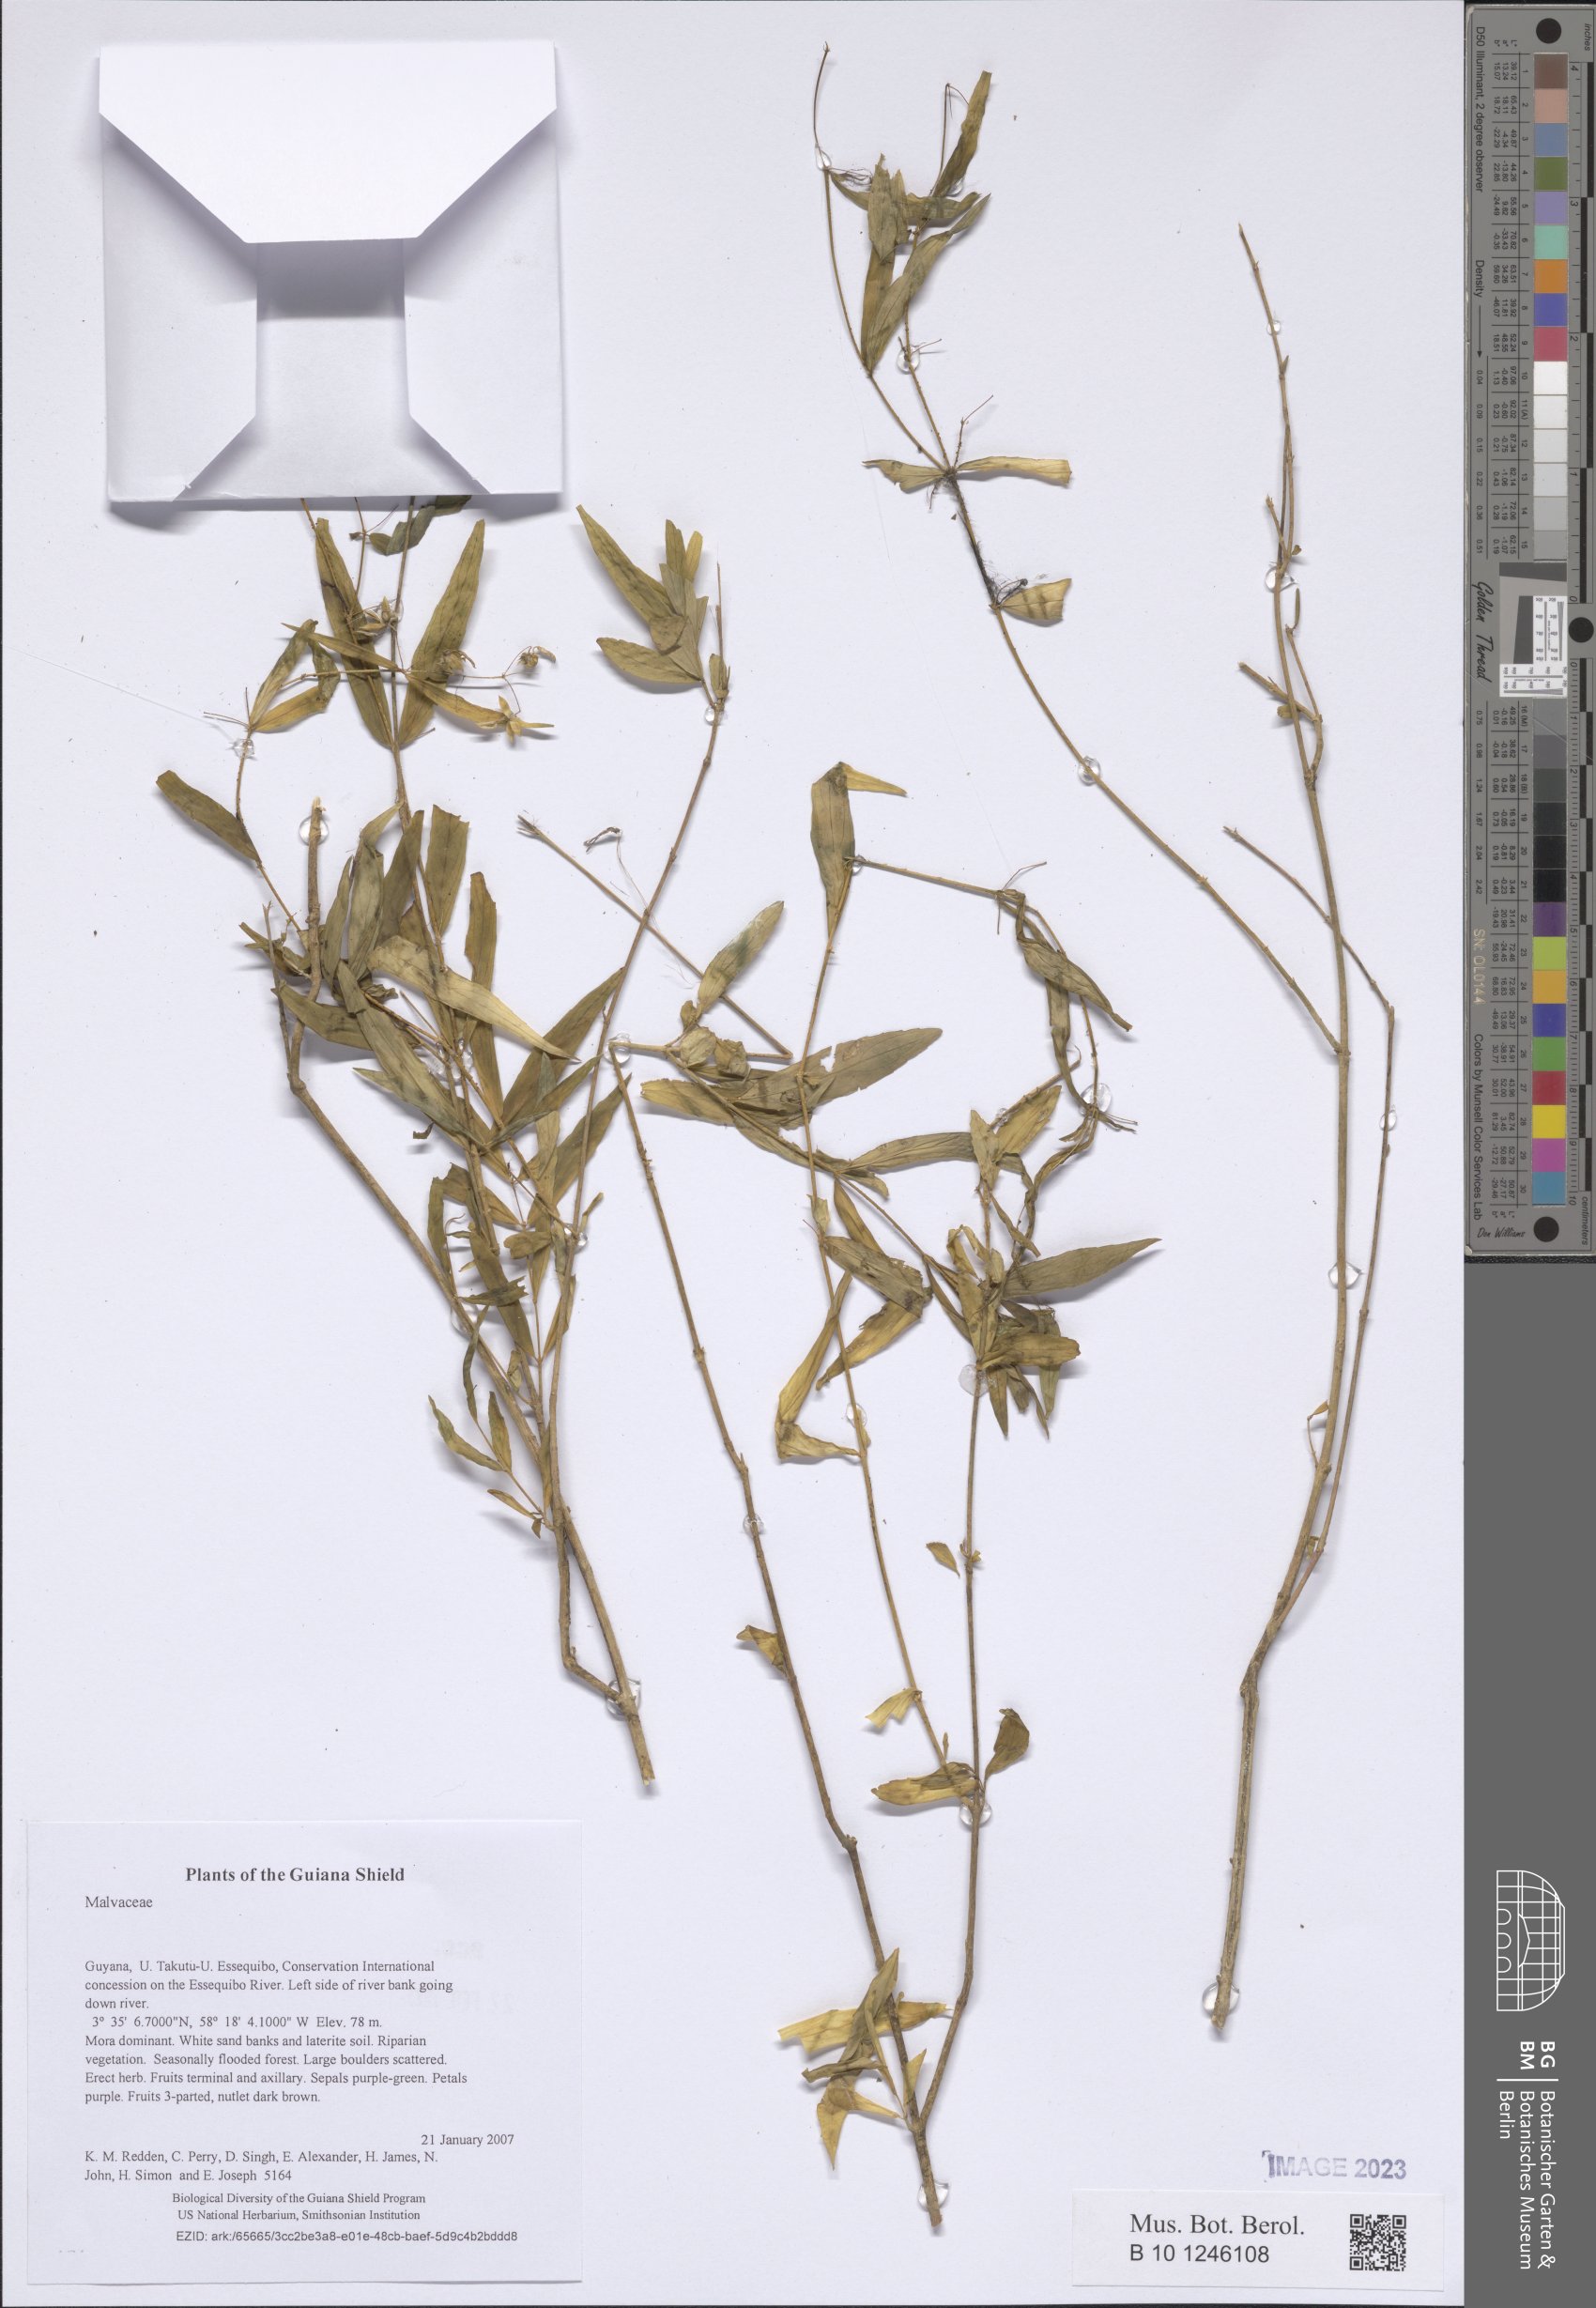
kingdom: Plantae
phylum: Tracheophyta
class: Magnoliopsida
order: Malvales
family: Malvaceae
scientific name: Malvaceae
